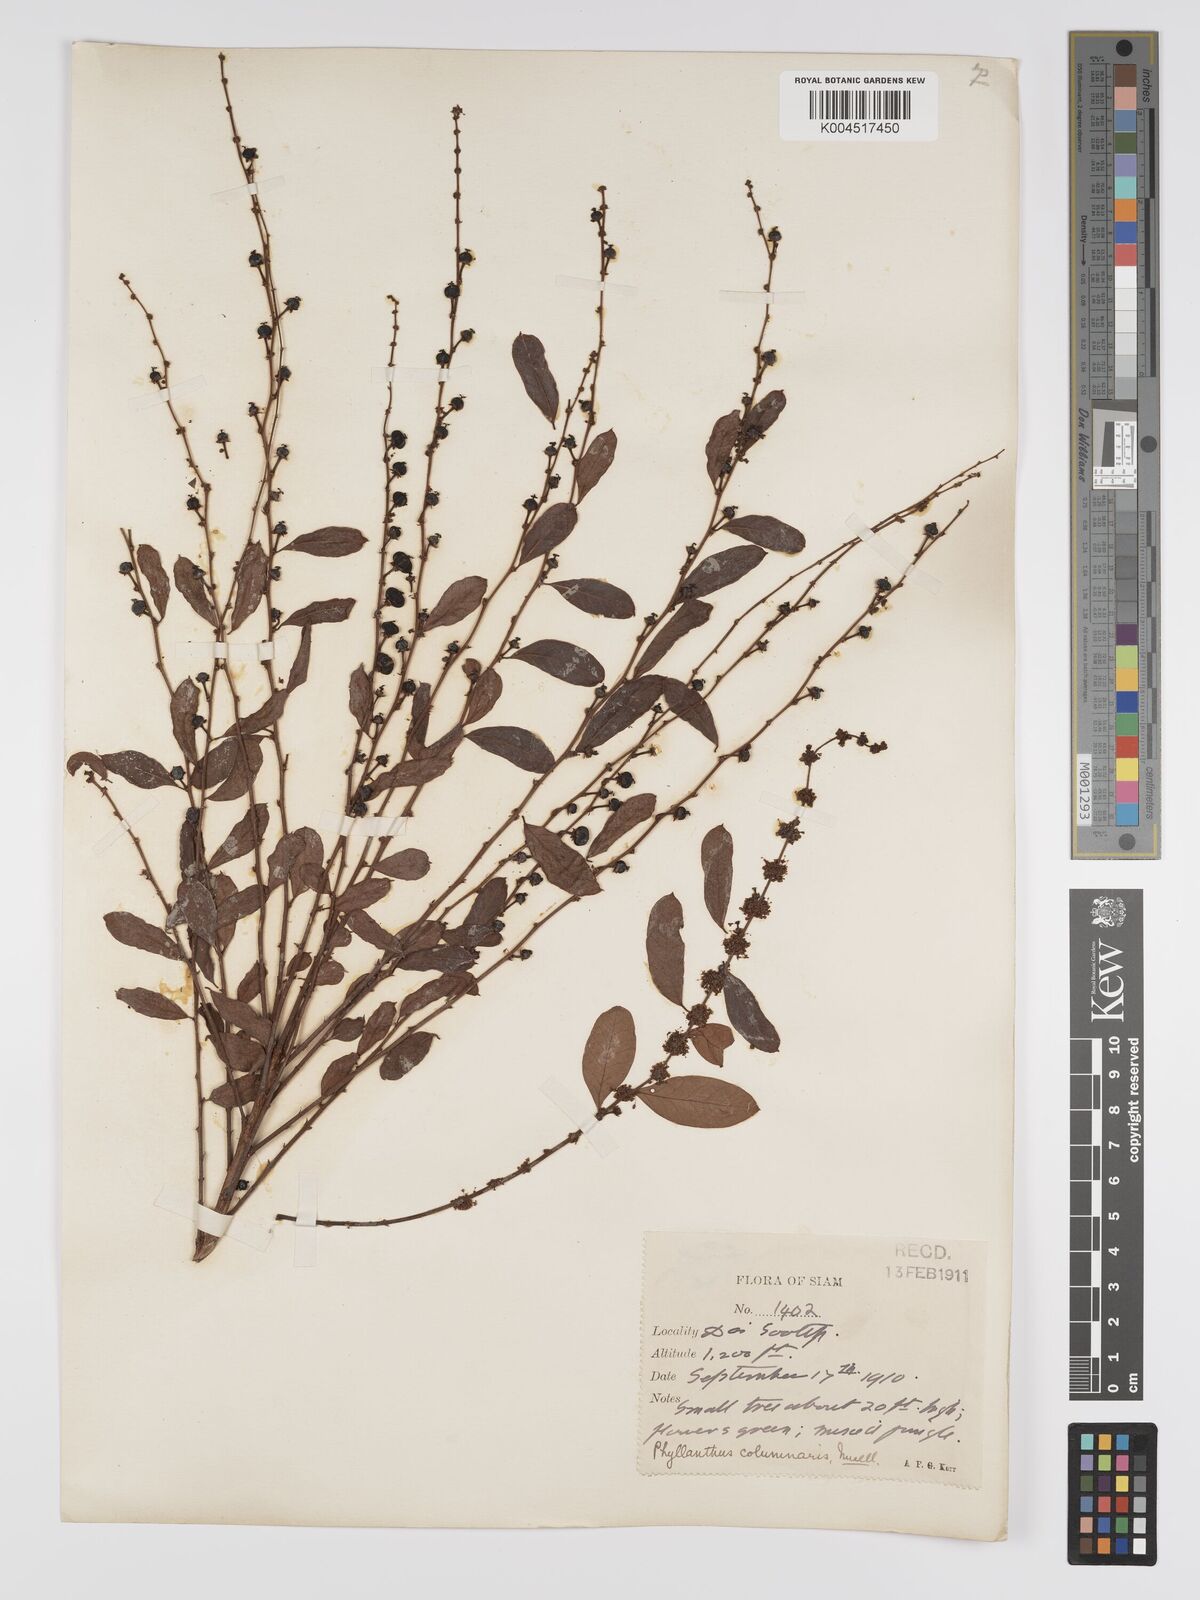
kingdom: Plantae
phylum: Tracheophyta
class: Magnoliopsida
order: Malpighiales
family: Phyllanthaceae
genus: Phyllanthus
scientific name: Phyllanthus
